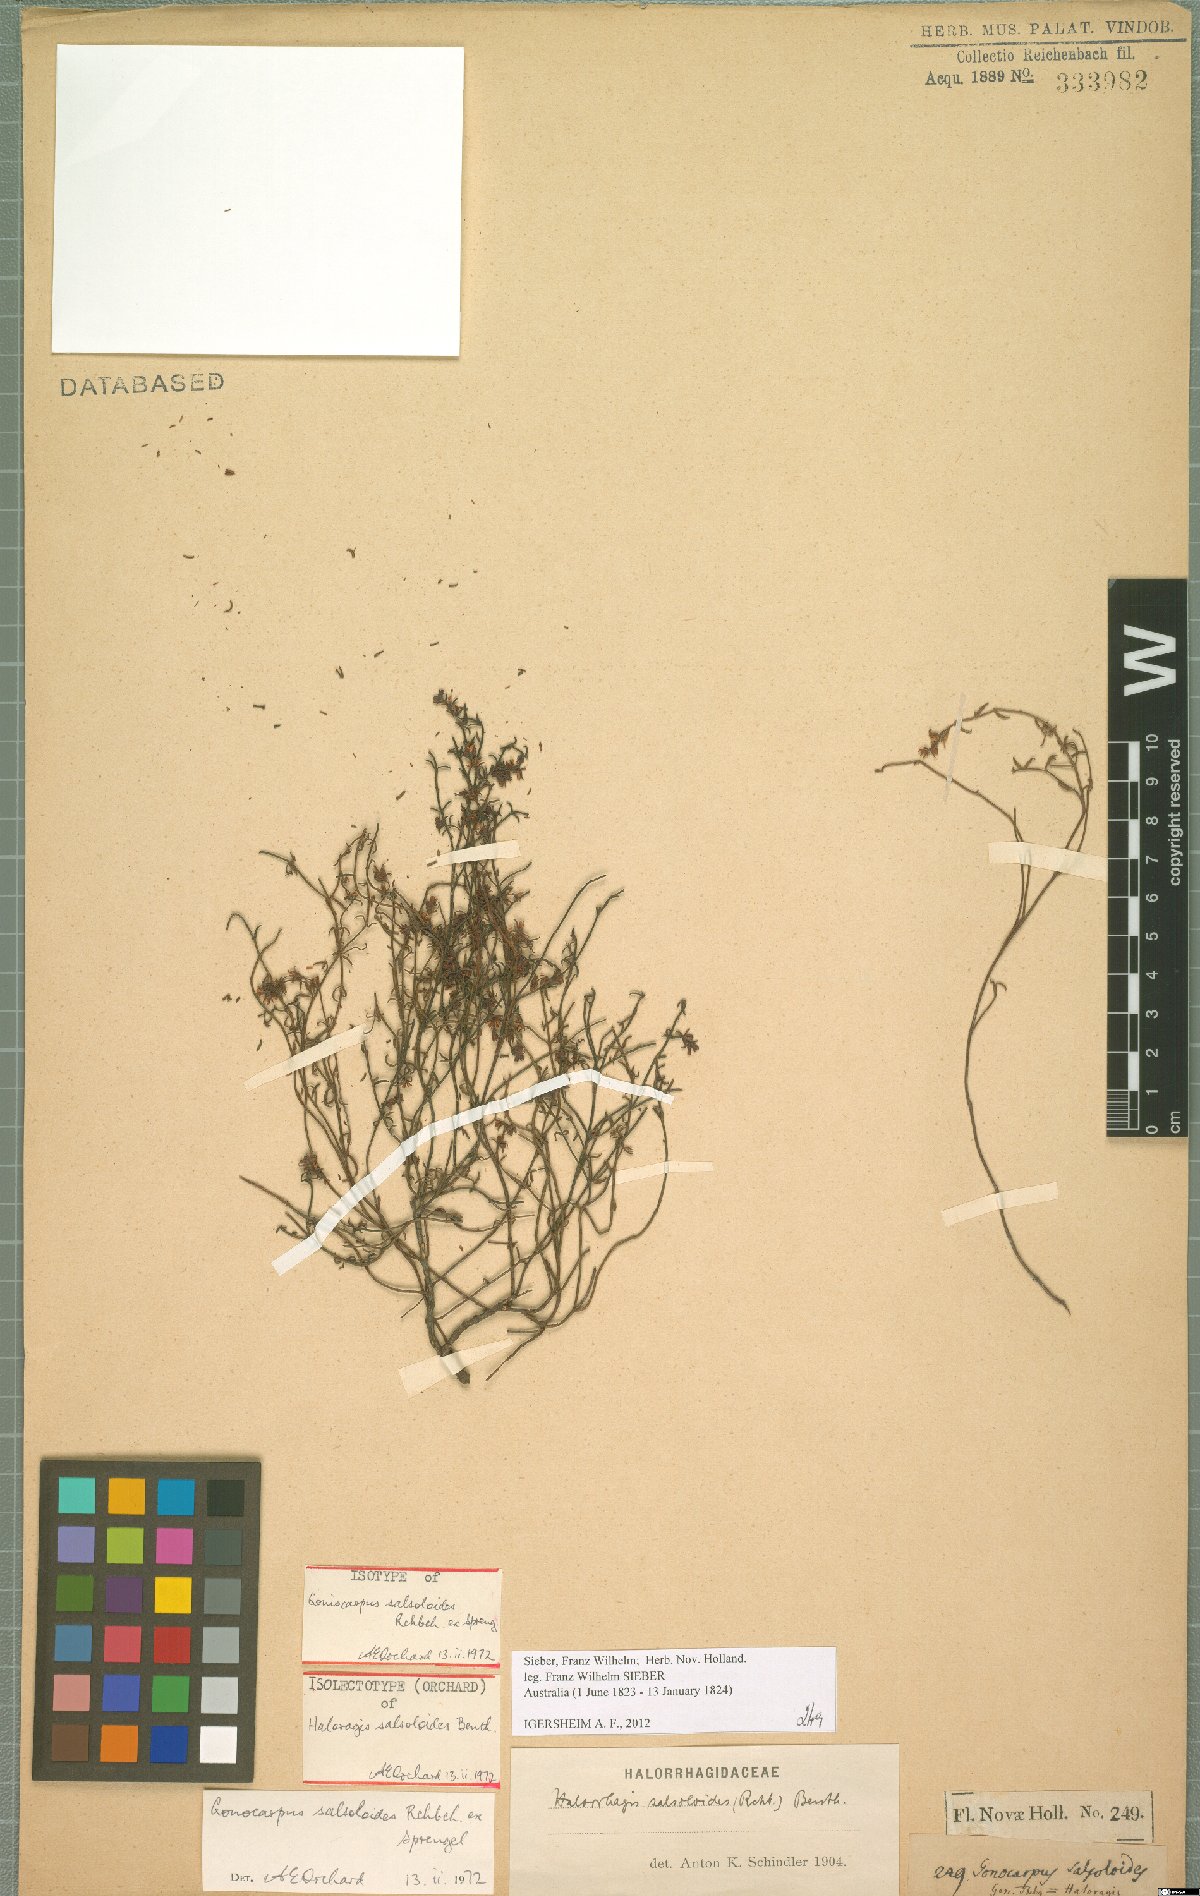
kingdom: Plantae
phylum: Tracheophyta
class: Magnoliopsida
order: Saxifragales
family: Haloragaceae
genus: Gonocarpus
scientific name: Gonocarpus salsoloides
